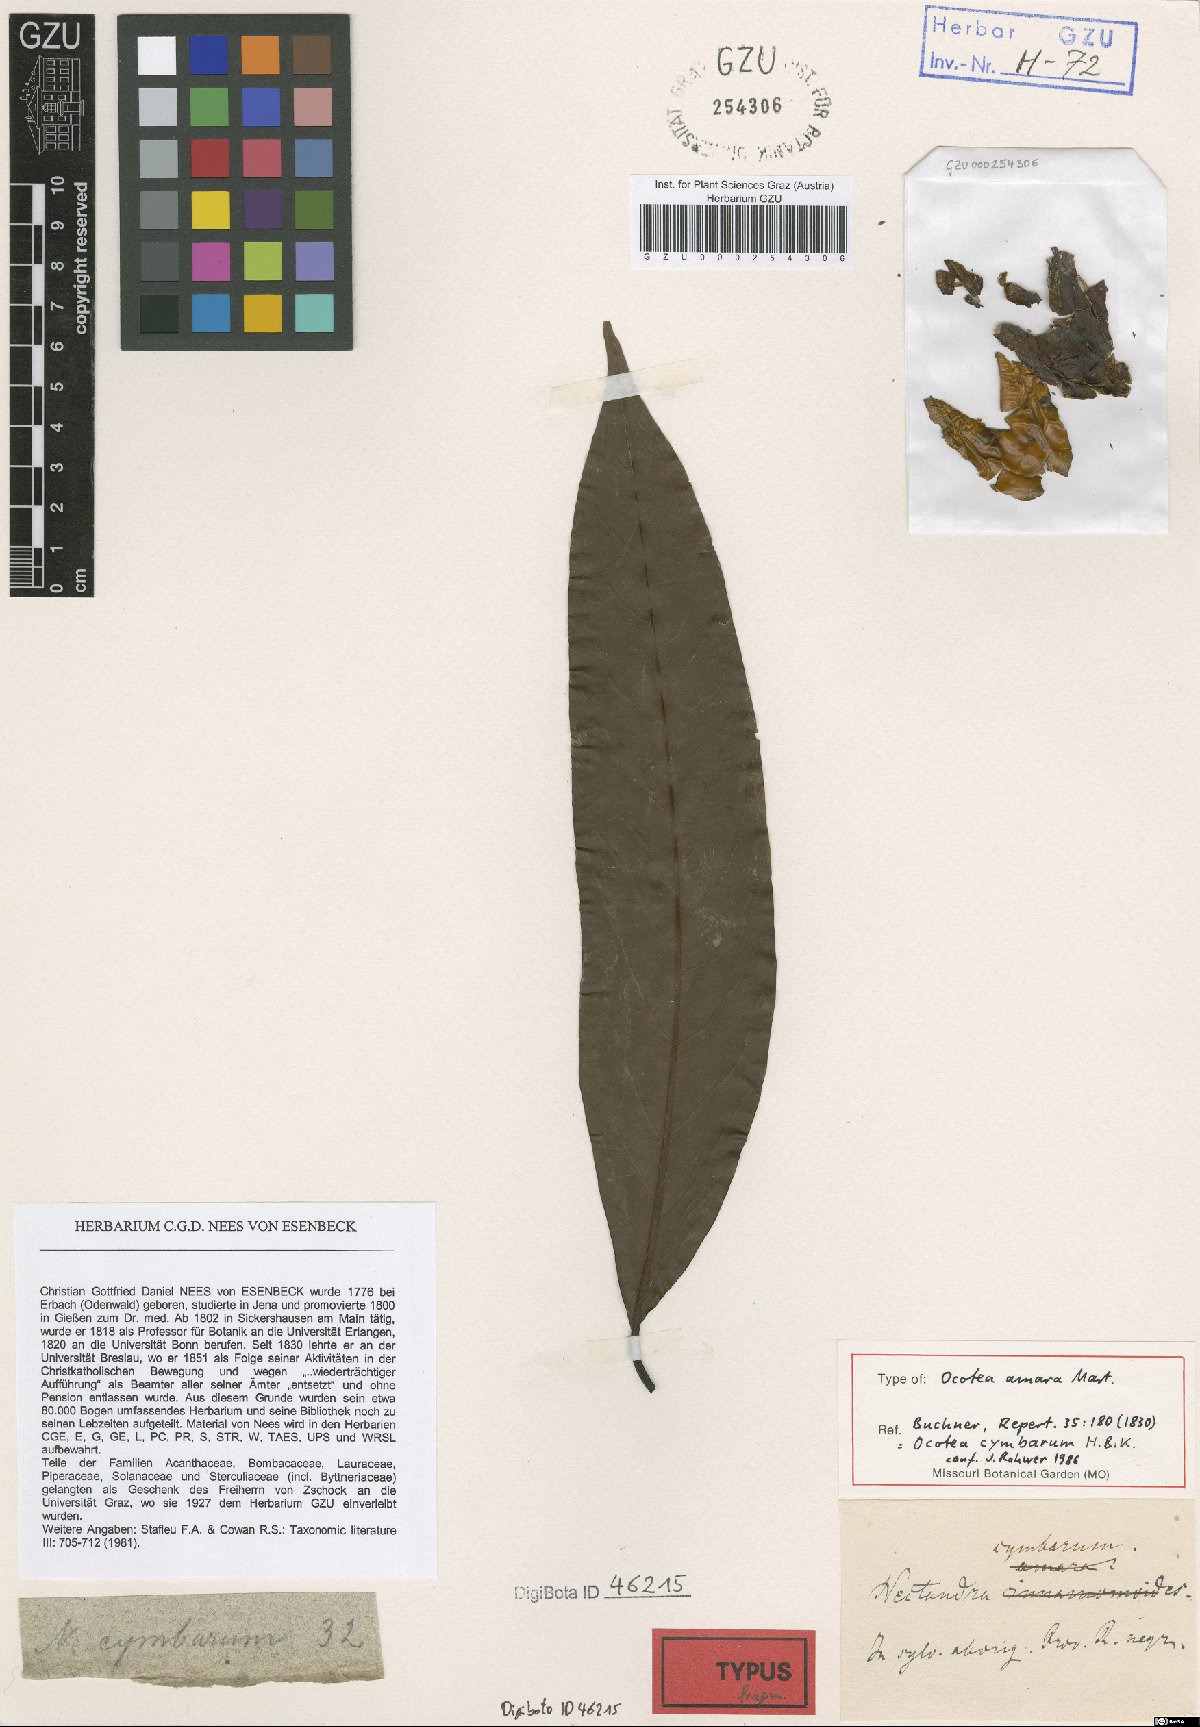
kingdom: Plantae
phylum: Tracheophyta
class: Magnoliopsida
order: Laurales
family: Lauraceae
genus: Mespilodaphne
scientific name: Mespilodaphne cymbarum
